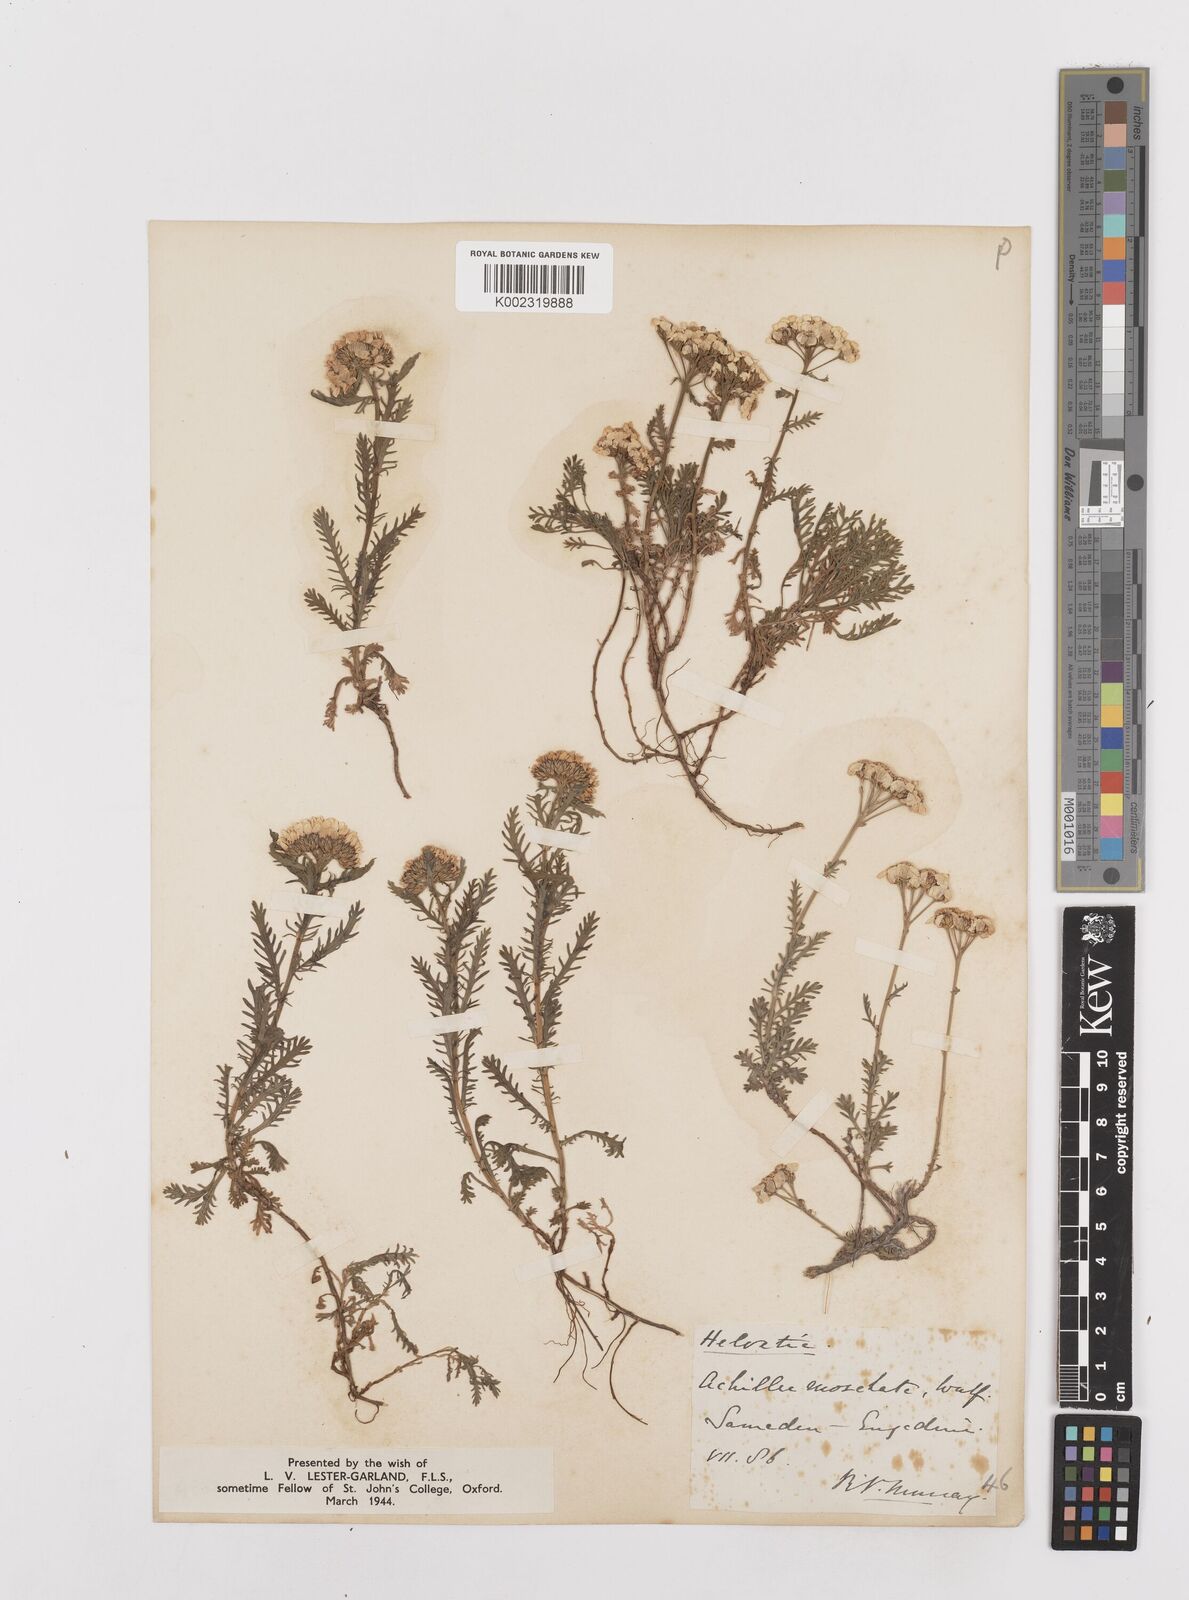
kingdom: Plantae
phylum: Tracheophyta
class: Magnoliopsida
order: Asterales
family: Asteraceae
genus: Achillea
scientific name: Achillea erba-rotta
